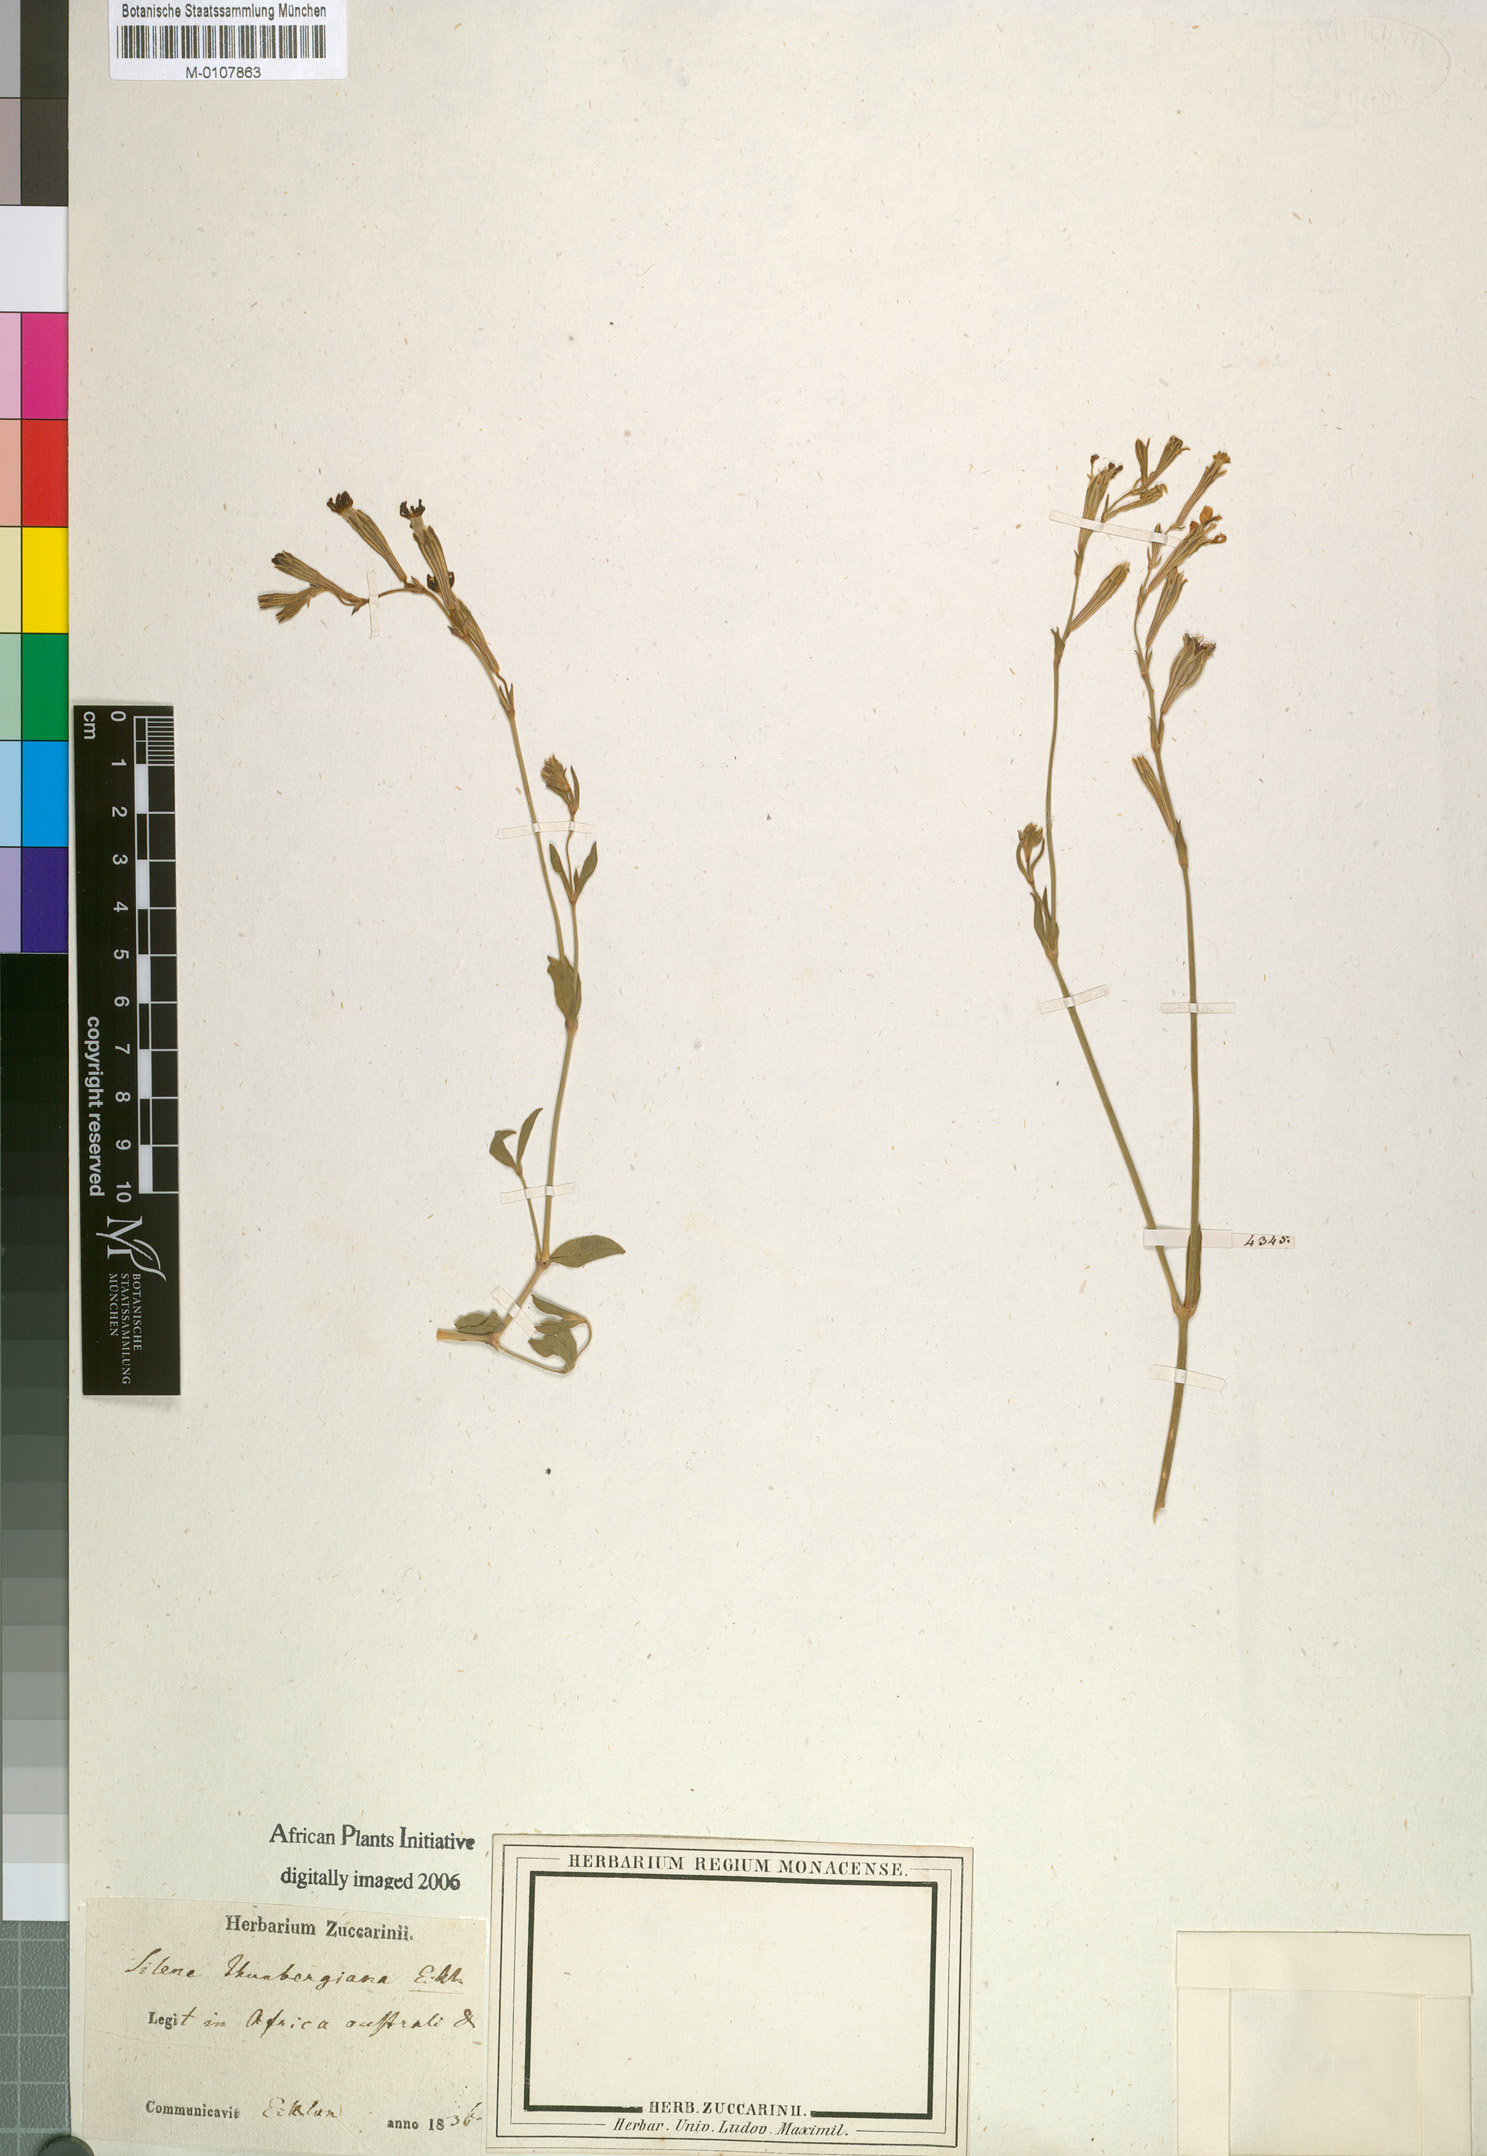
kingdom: Plantae
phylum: Tracheophyta
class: Magnoliopsida
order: Caryophyllales
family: Caryophyllaceae
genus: Silene
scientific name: Silene
